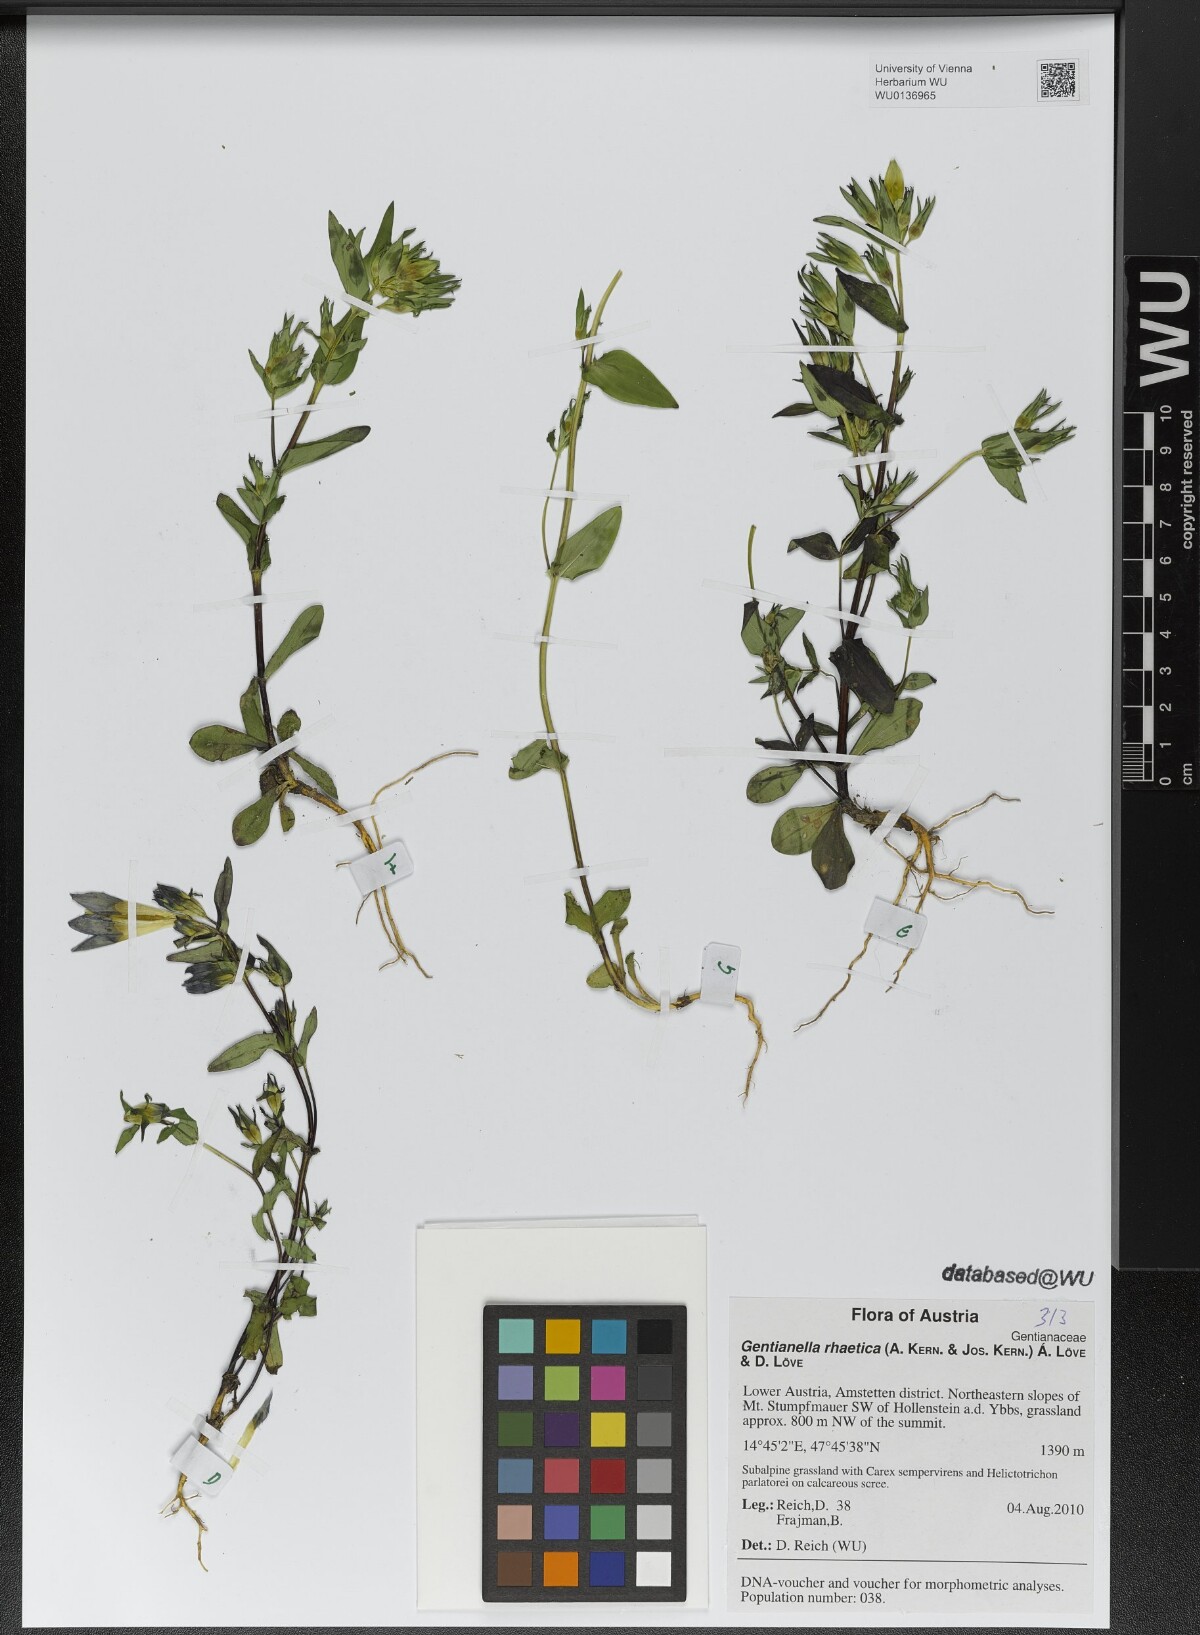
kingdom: Plantae
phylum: Tracheophyta
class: Magnoliopsida
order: Gentianales
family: Gentianaceae
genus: Gentianella
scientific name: Gentianella rhaetica
